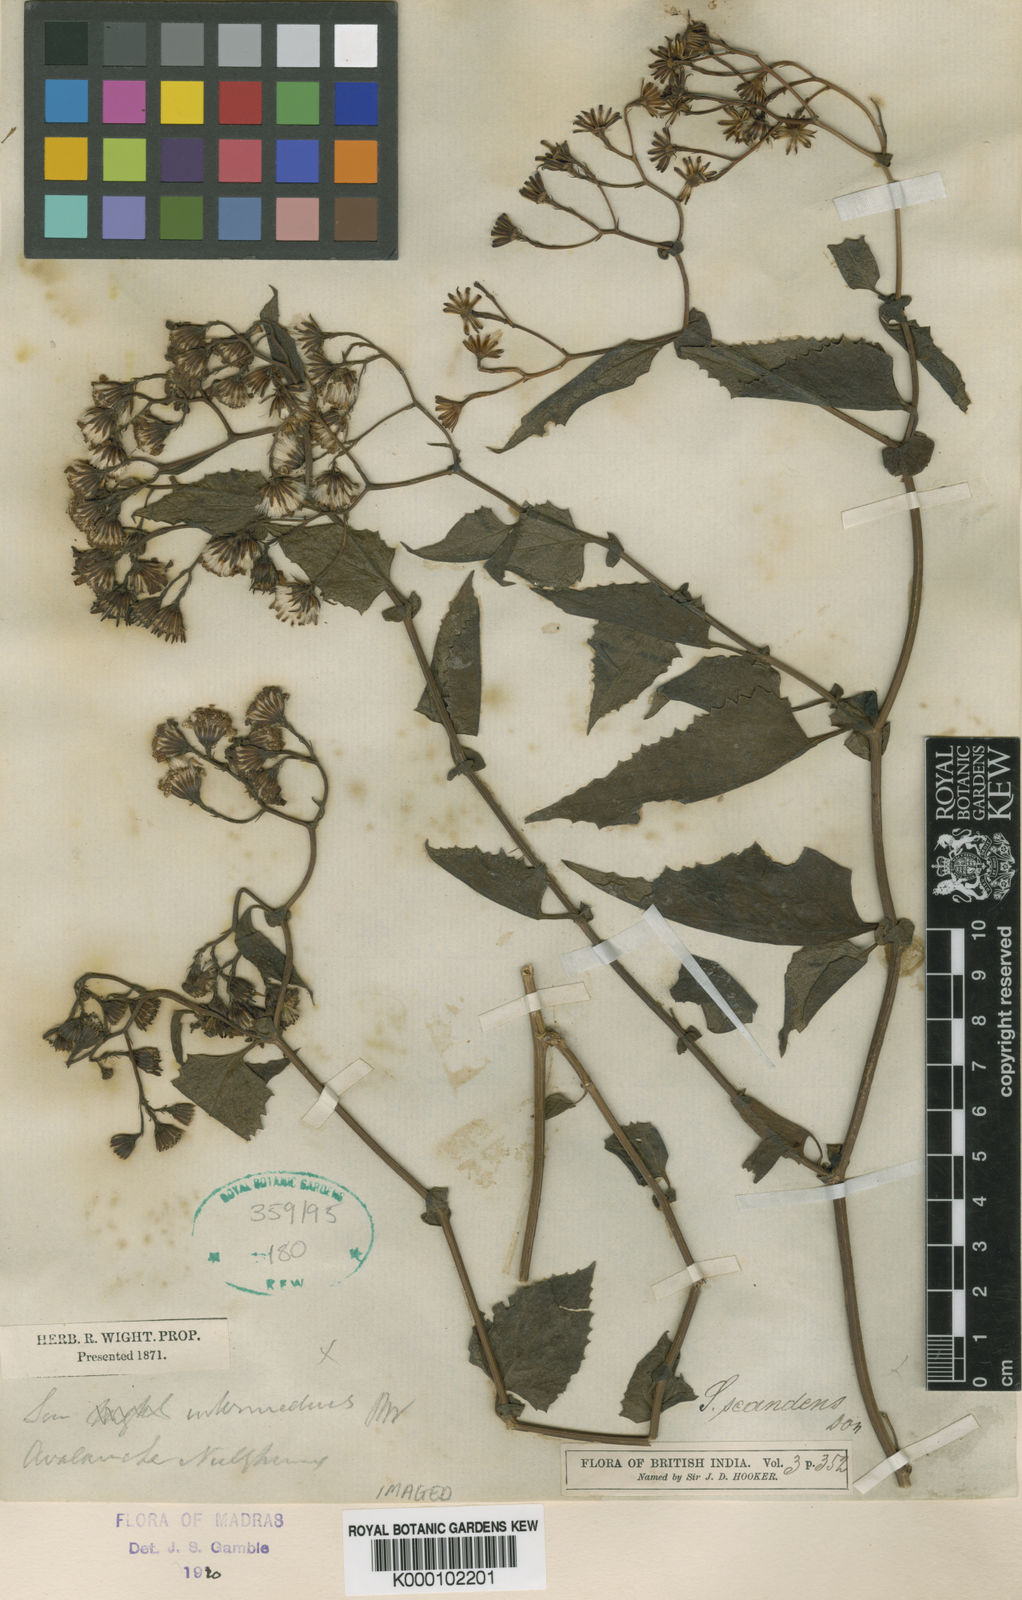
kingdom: Plantae
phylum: Tracheophyta
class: Magnoliopsida
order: Asterales
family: Asteraceae
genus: Senecio
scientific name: Senecio scandens
